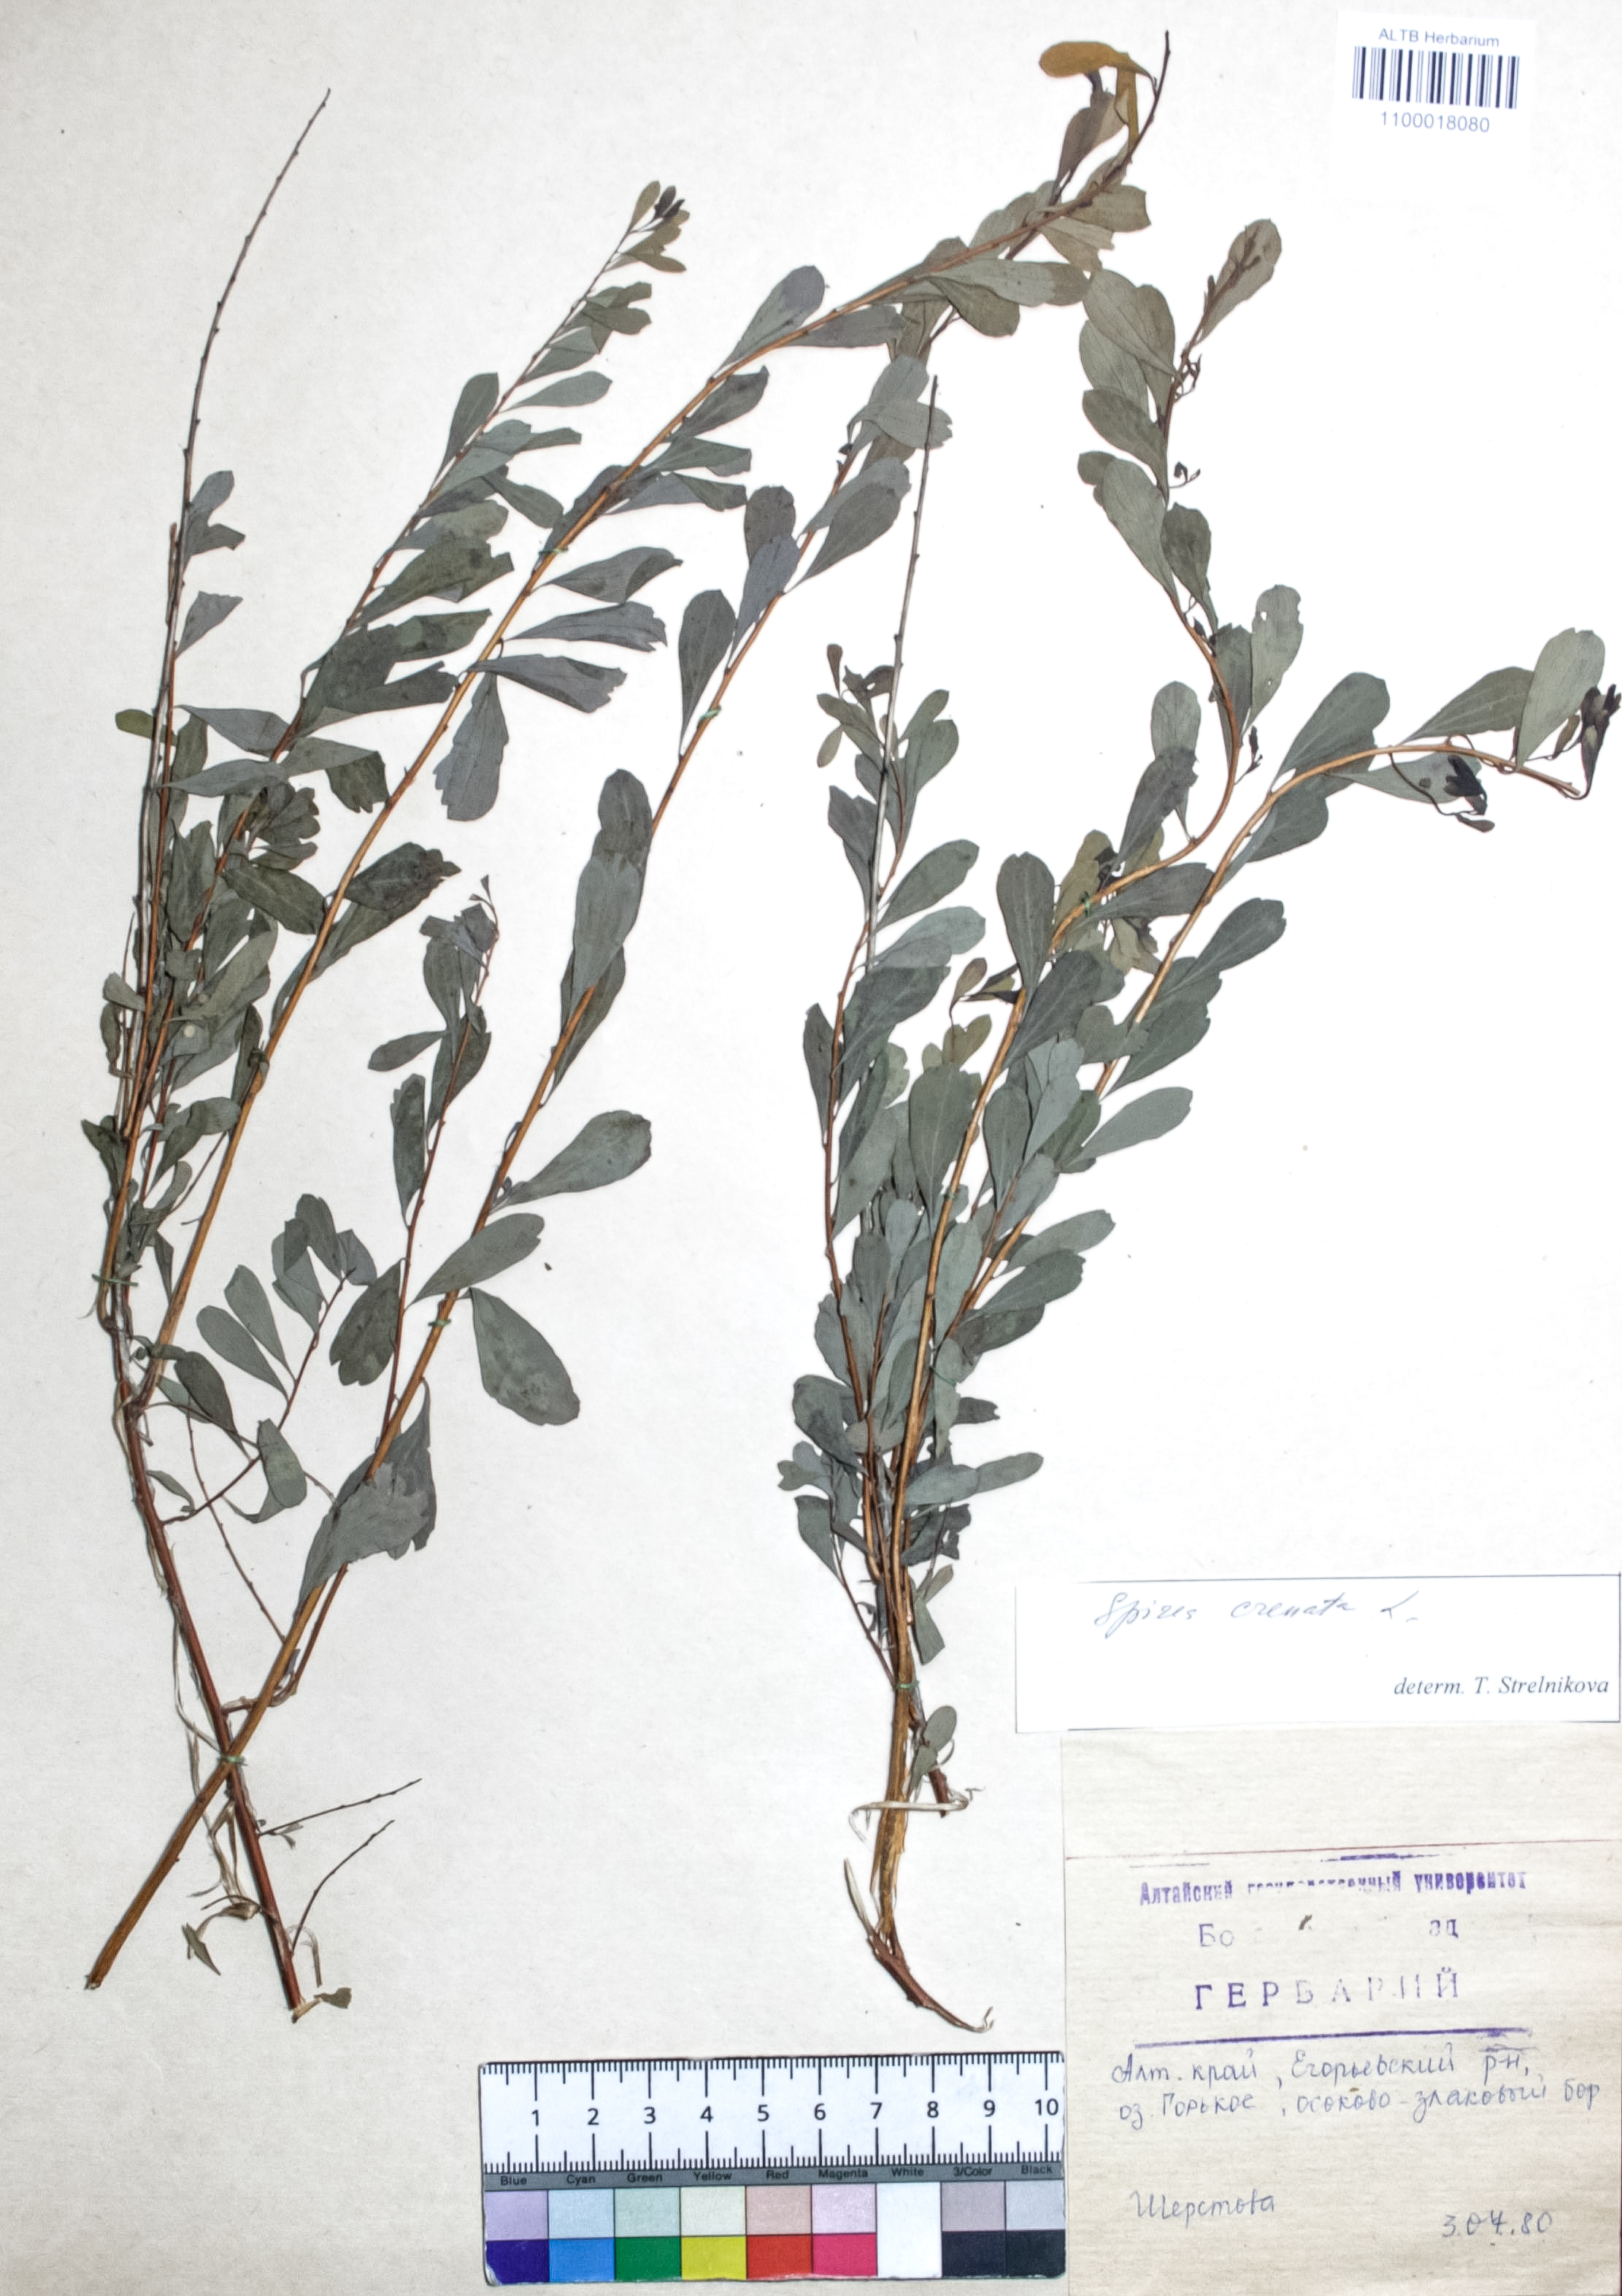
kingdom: Plantae
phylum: Tracheophyta
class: Magnoliopsida
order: Rosales
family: Rosaceae
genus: Spiraea
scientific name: Spiraea crenata
